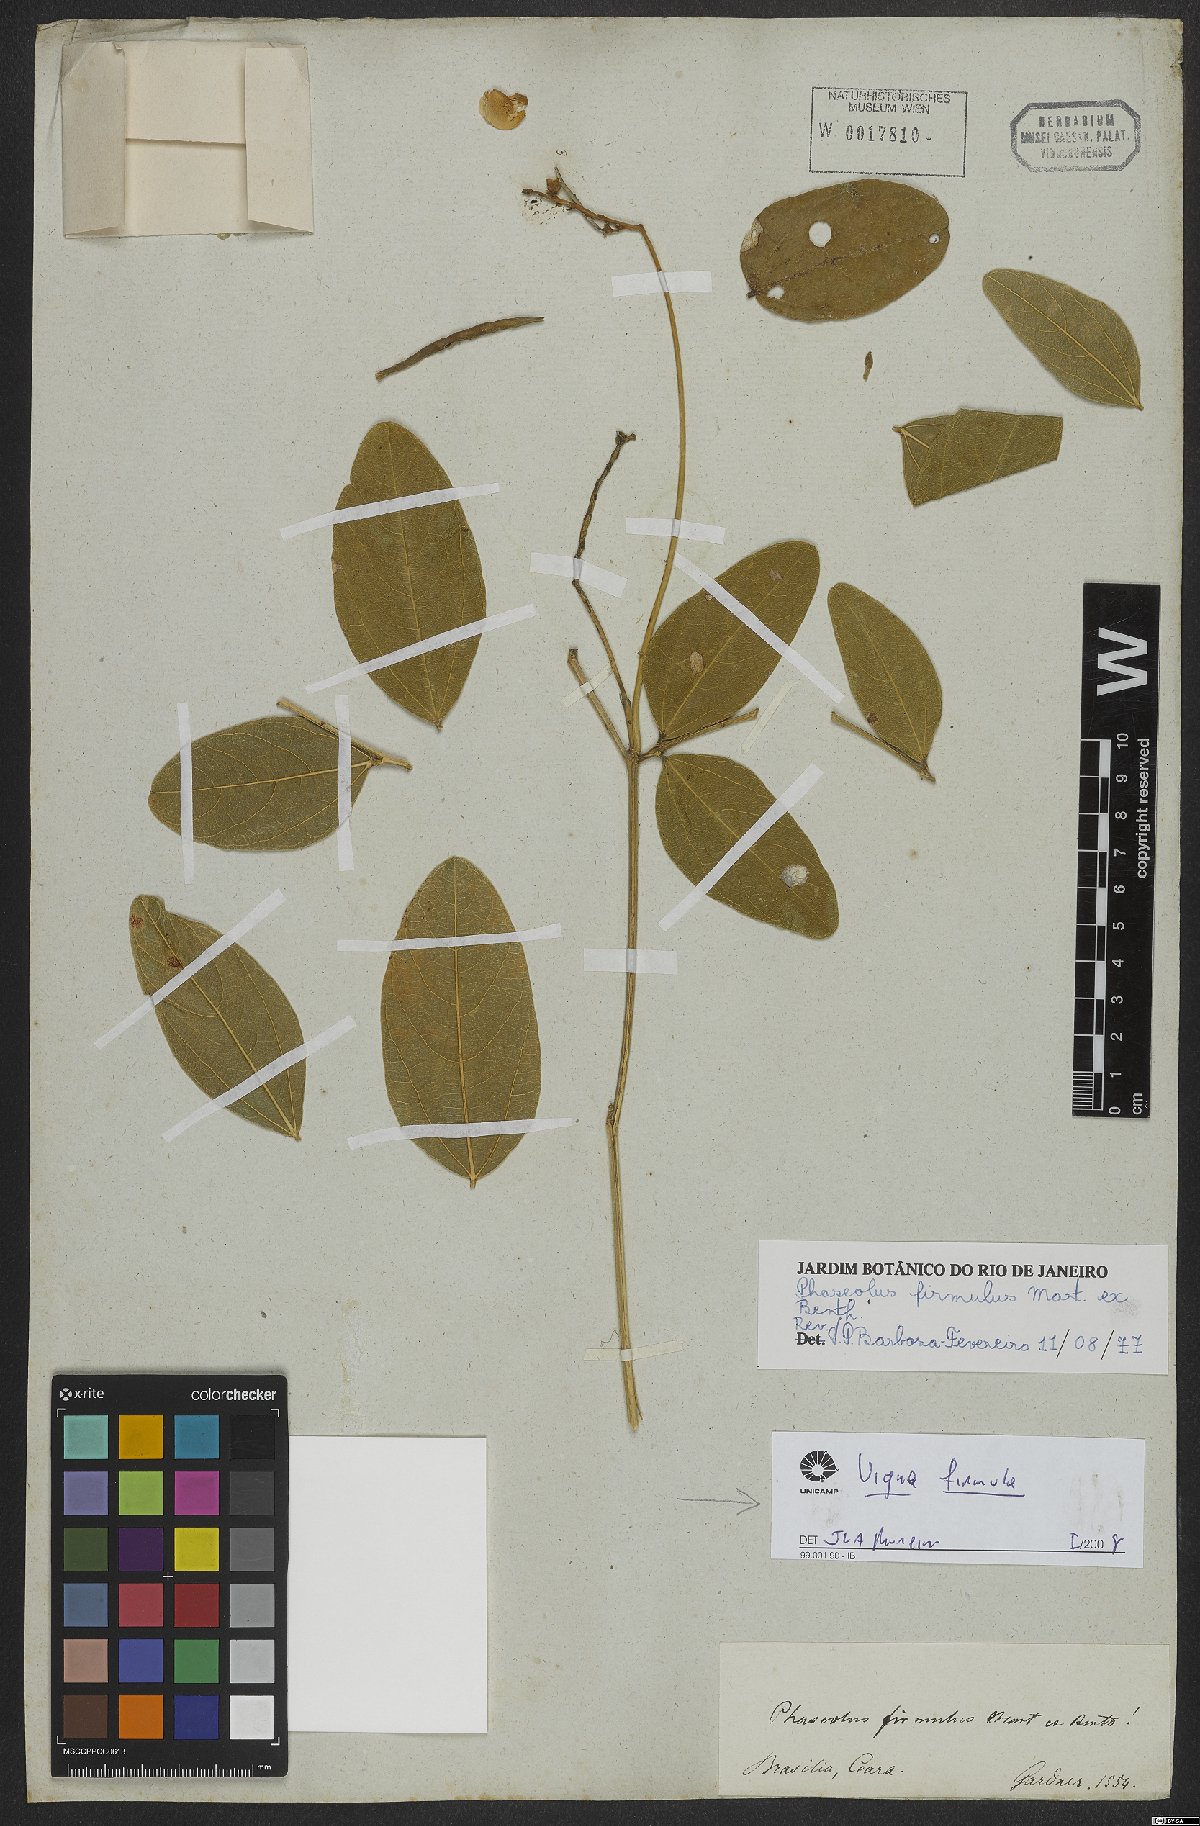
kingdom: Plantae
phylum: Tracheophyta
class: Magnoliopsida
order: Fabales
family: Fabaceae
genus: Ancistrotropis
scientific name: Ancistrotropis firmula
